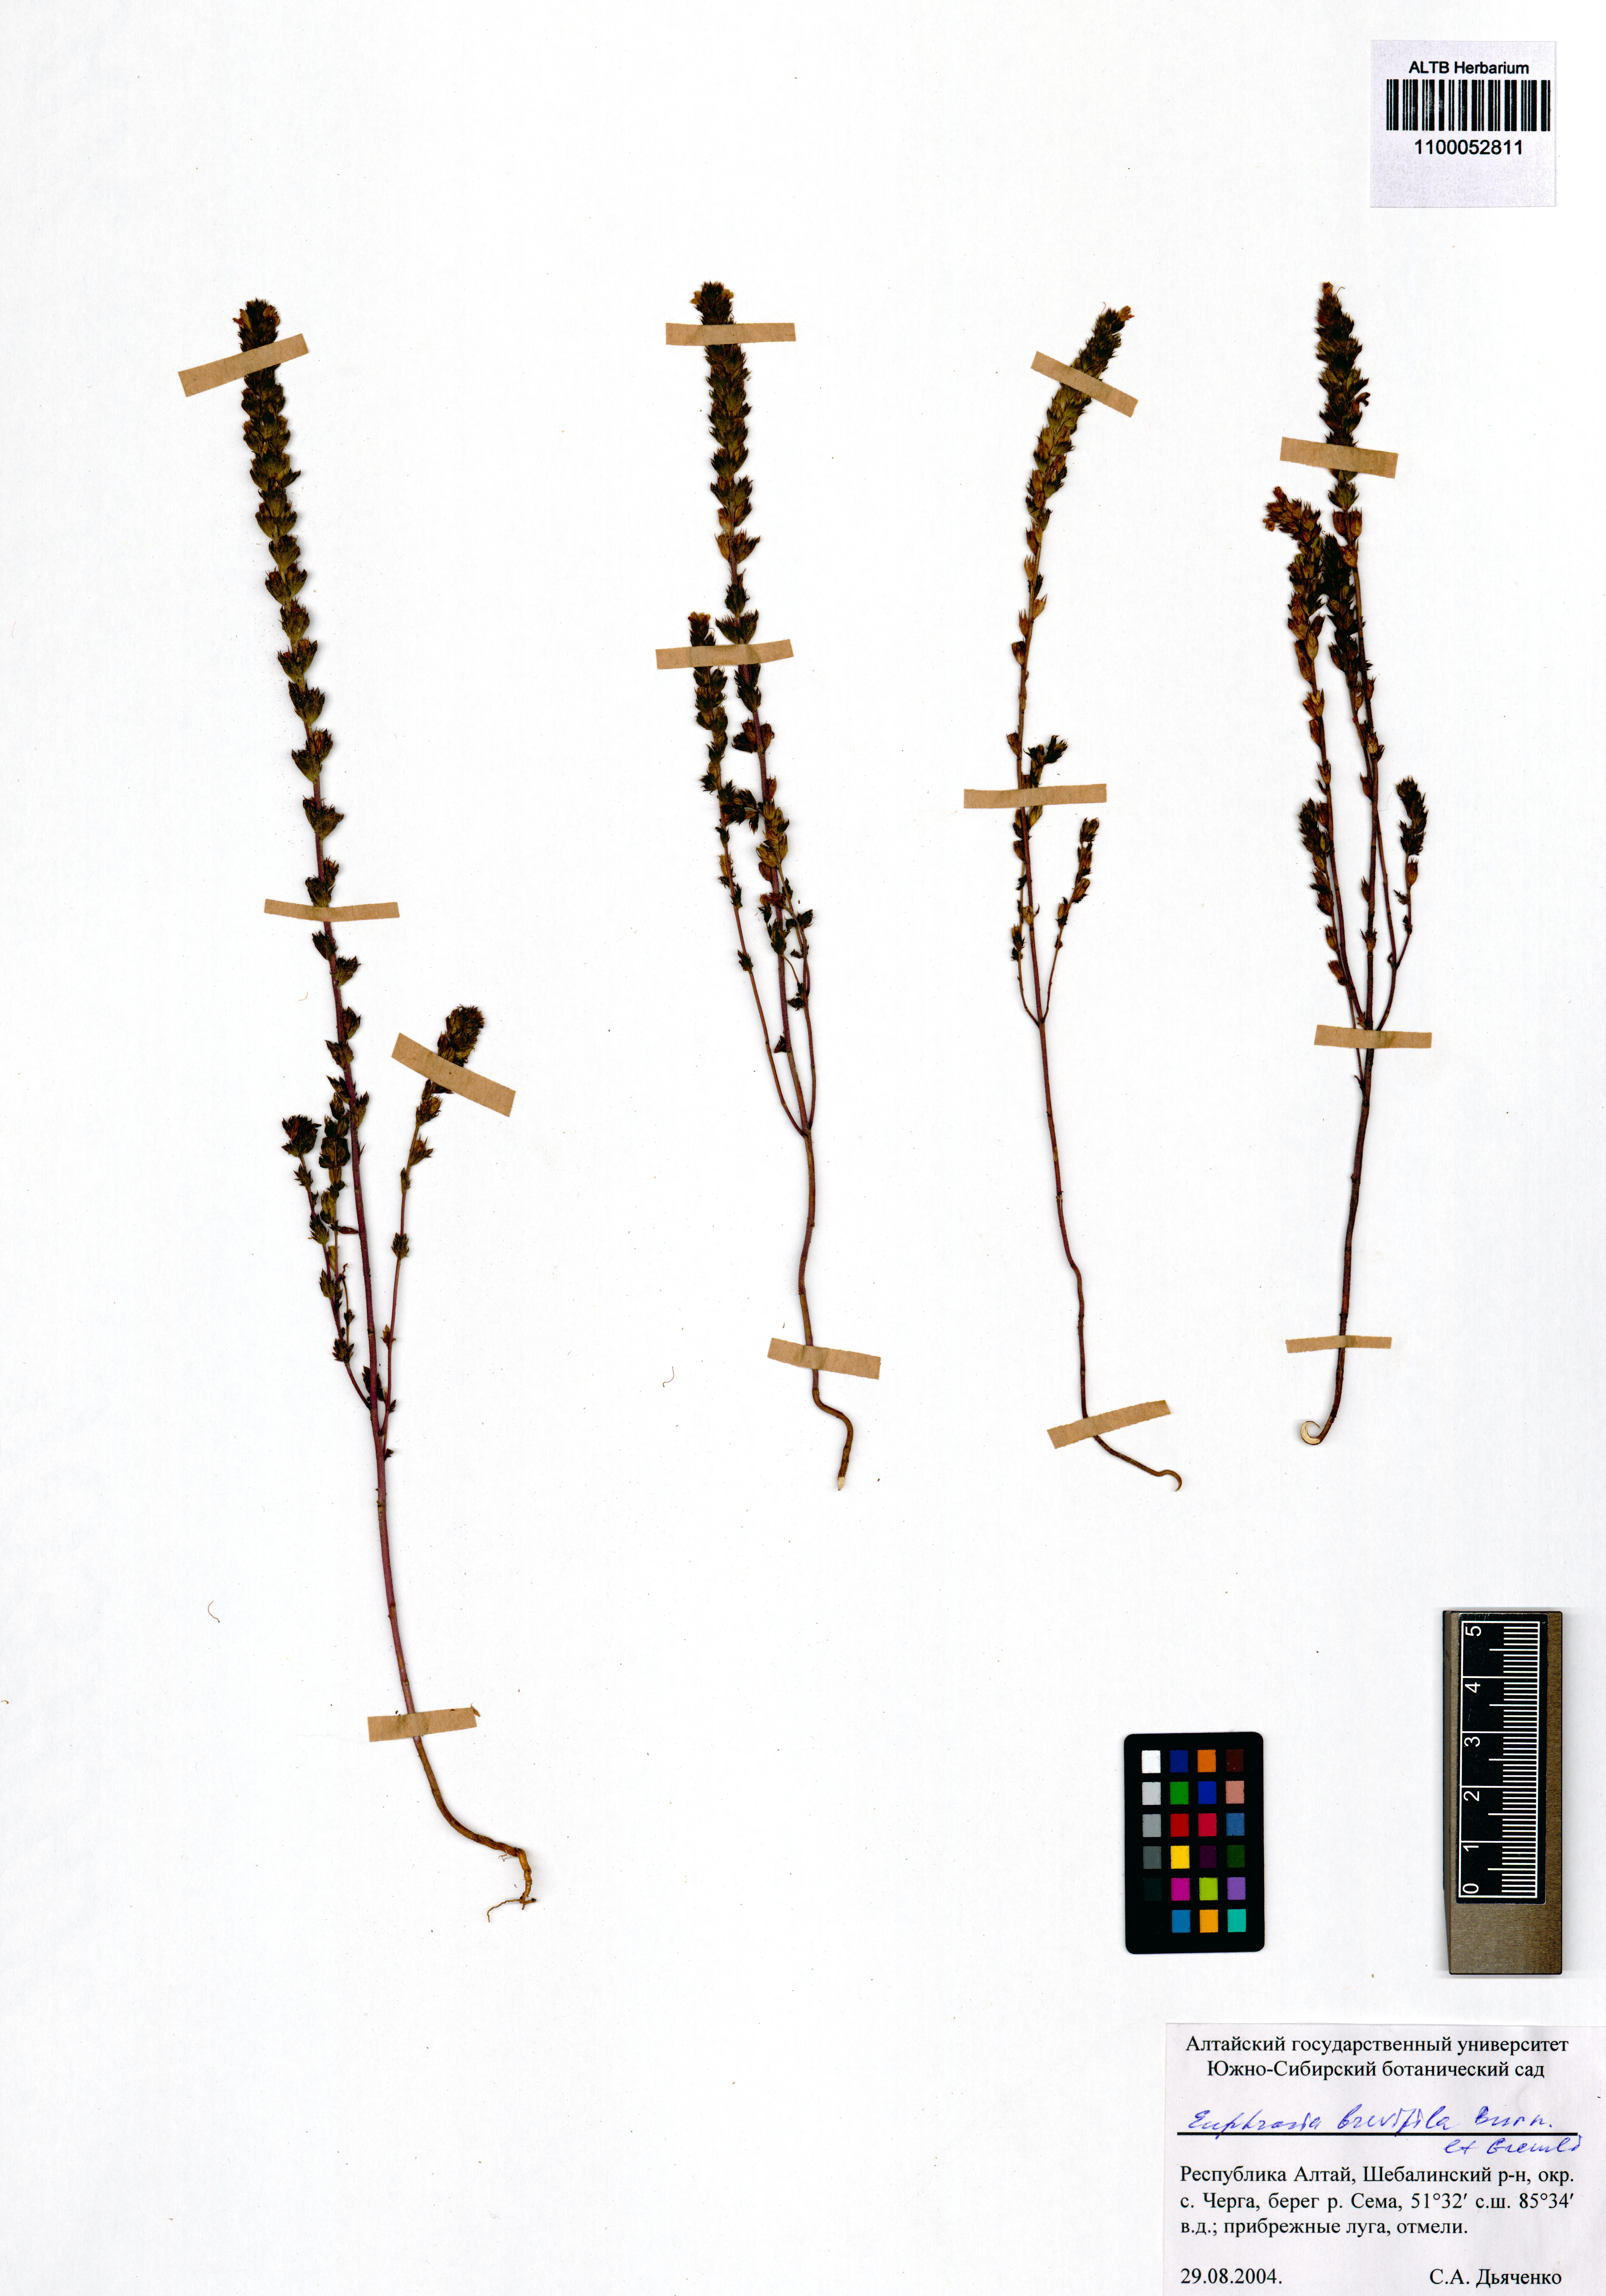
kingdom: Plantae
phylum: Tracheophyta
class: Magnoliopsida
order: Lamiales
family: Orobanchaceae
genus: Euphrasia
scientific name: Euphrasia vernalis
